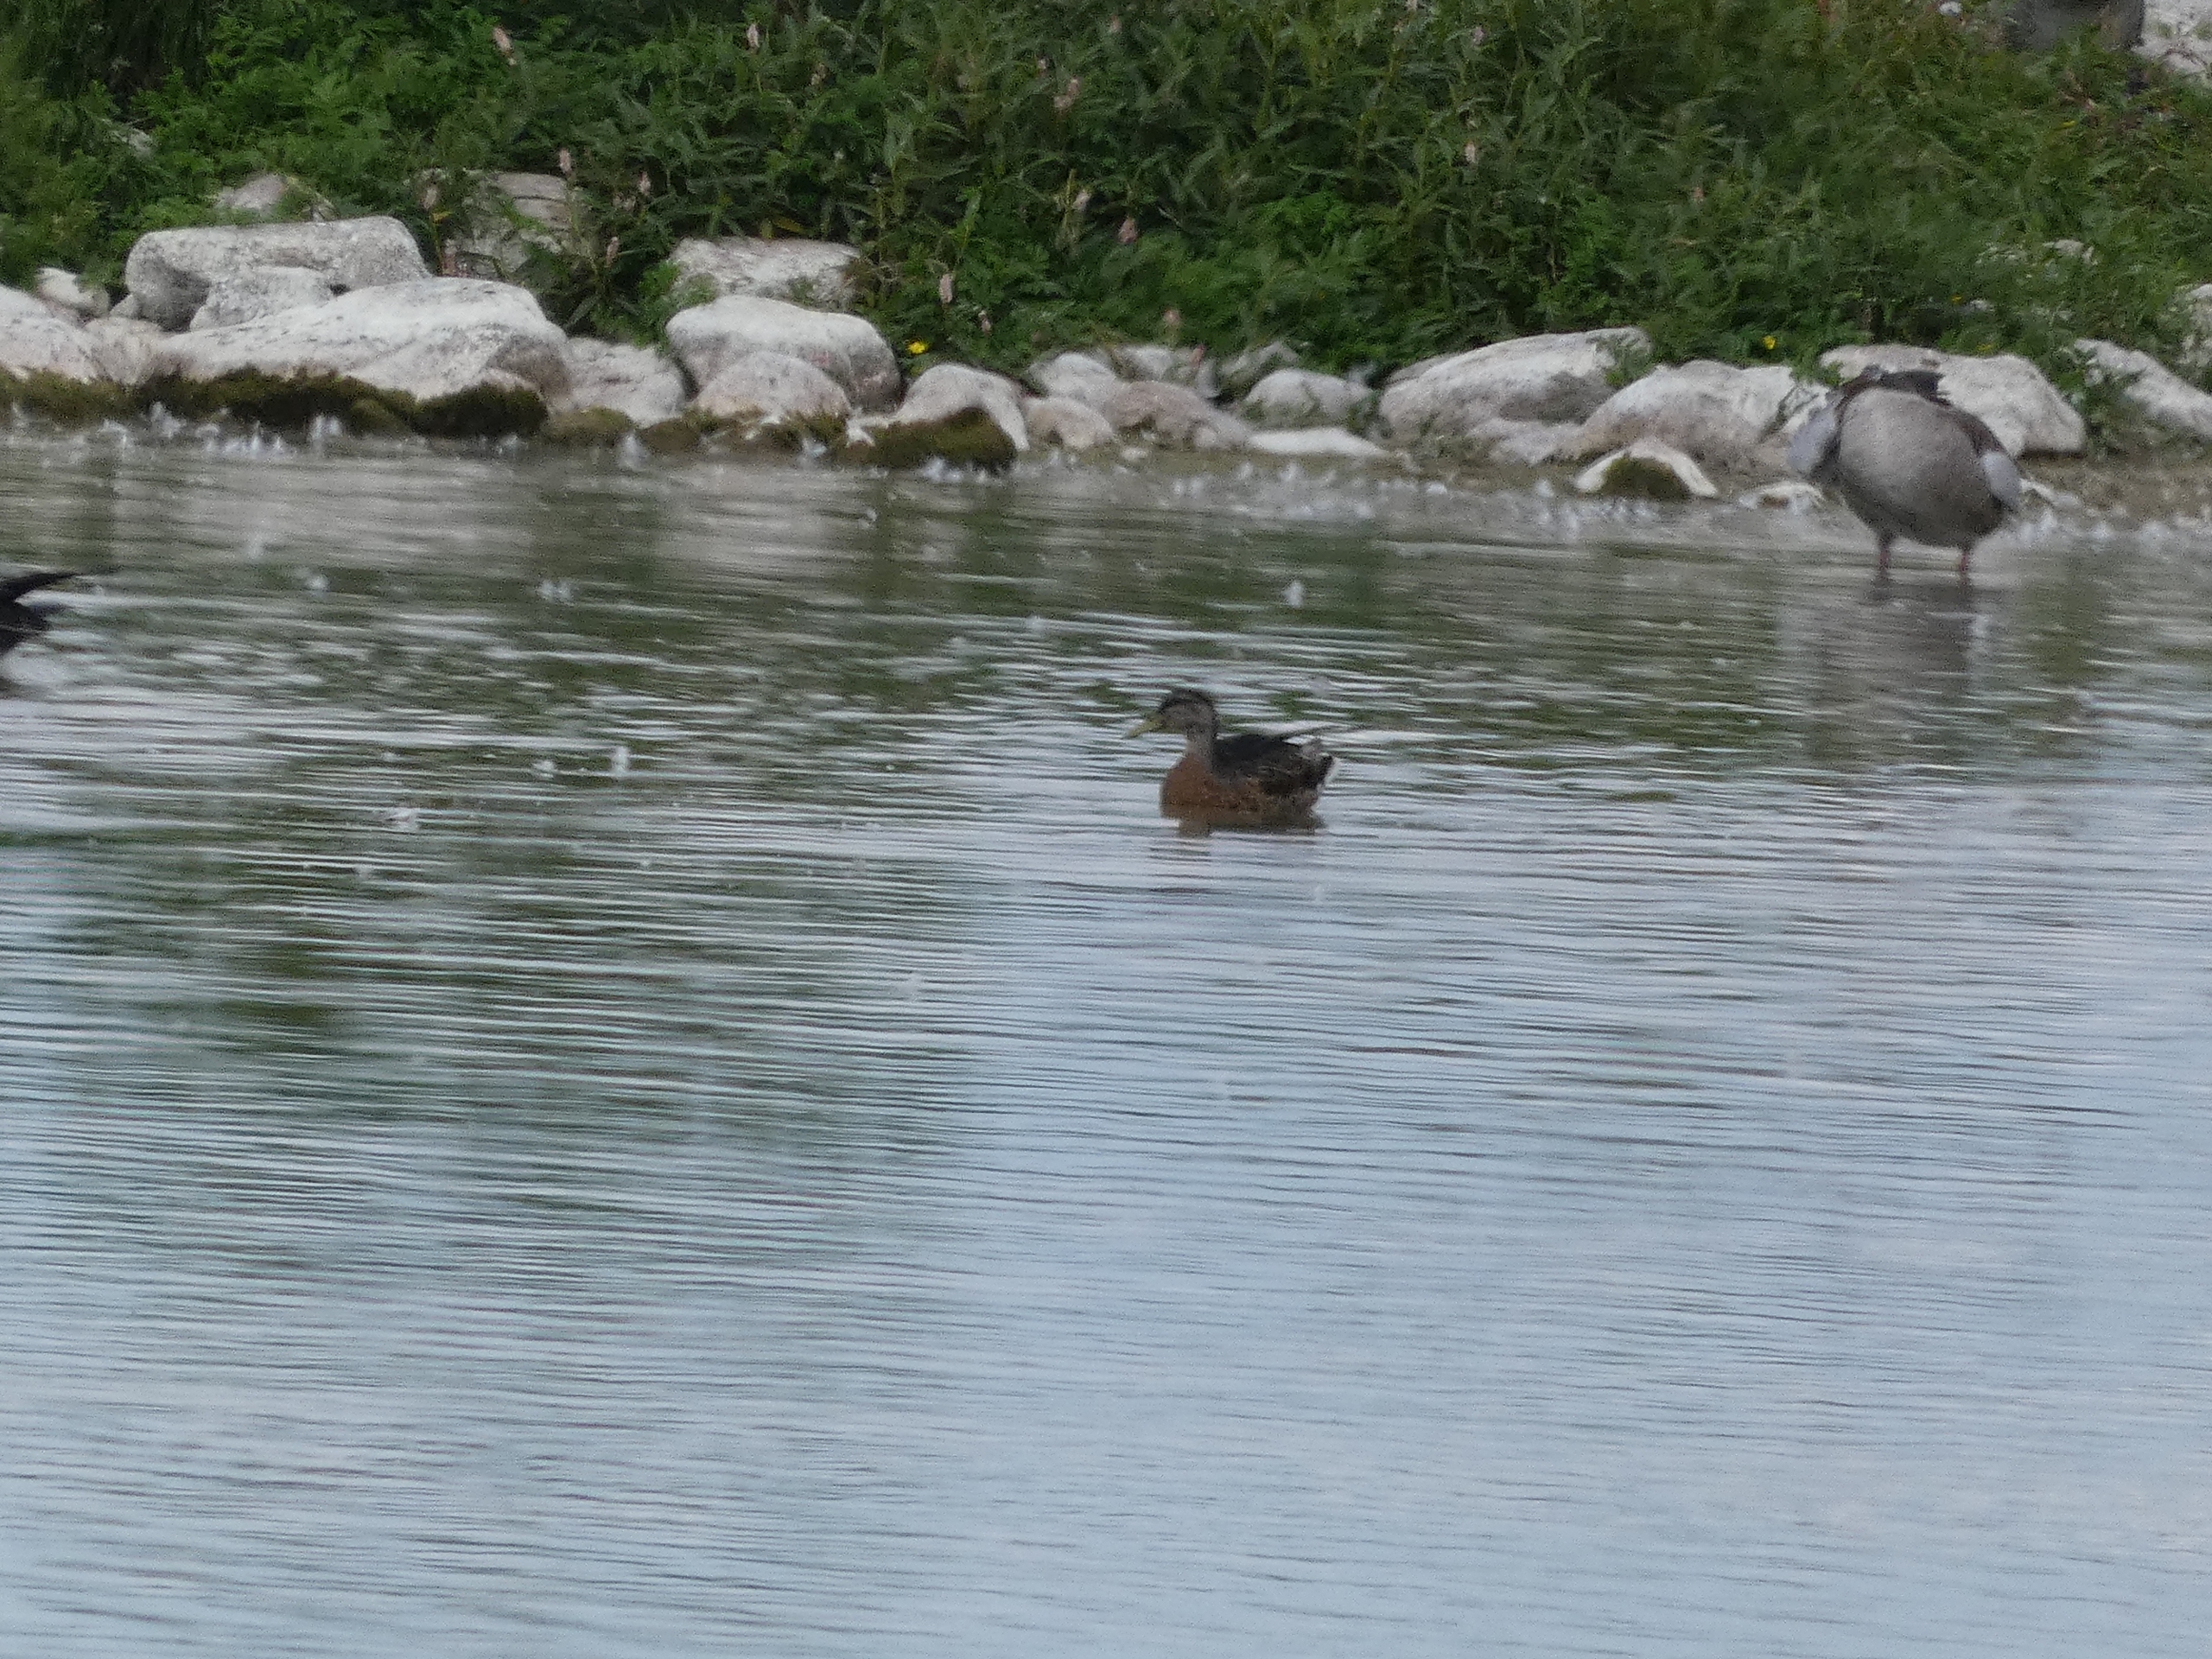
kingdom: Animalia
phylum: Chordata
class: Aves
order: Anseriformes
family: Anatidae
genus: Anas
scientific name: Anas platyrhynchos
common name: Gråand
